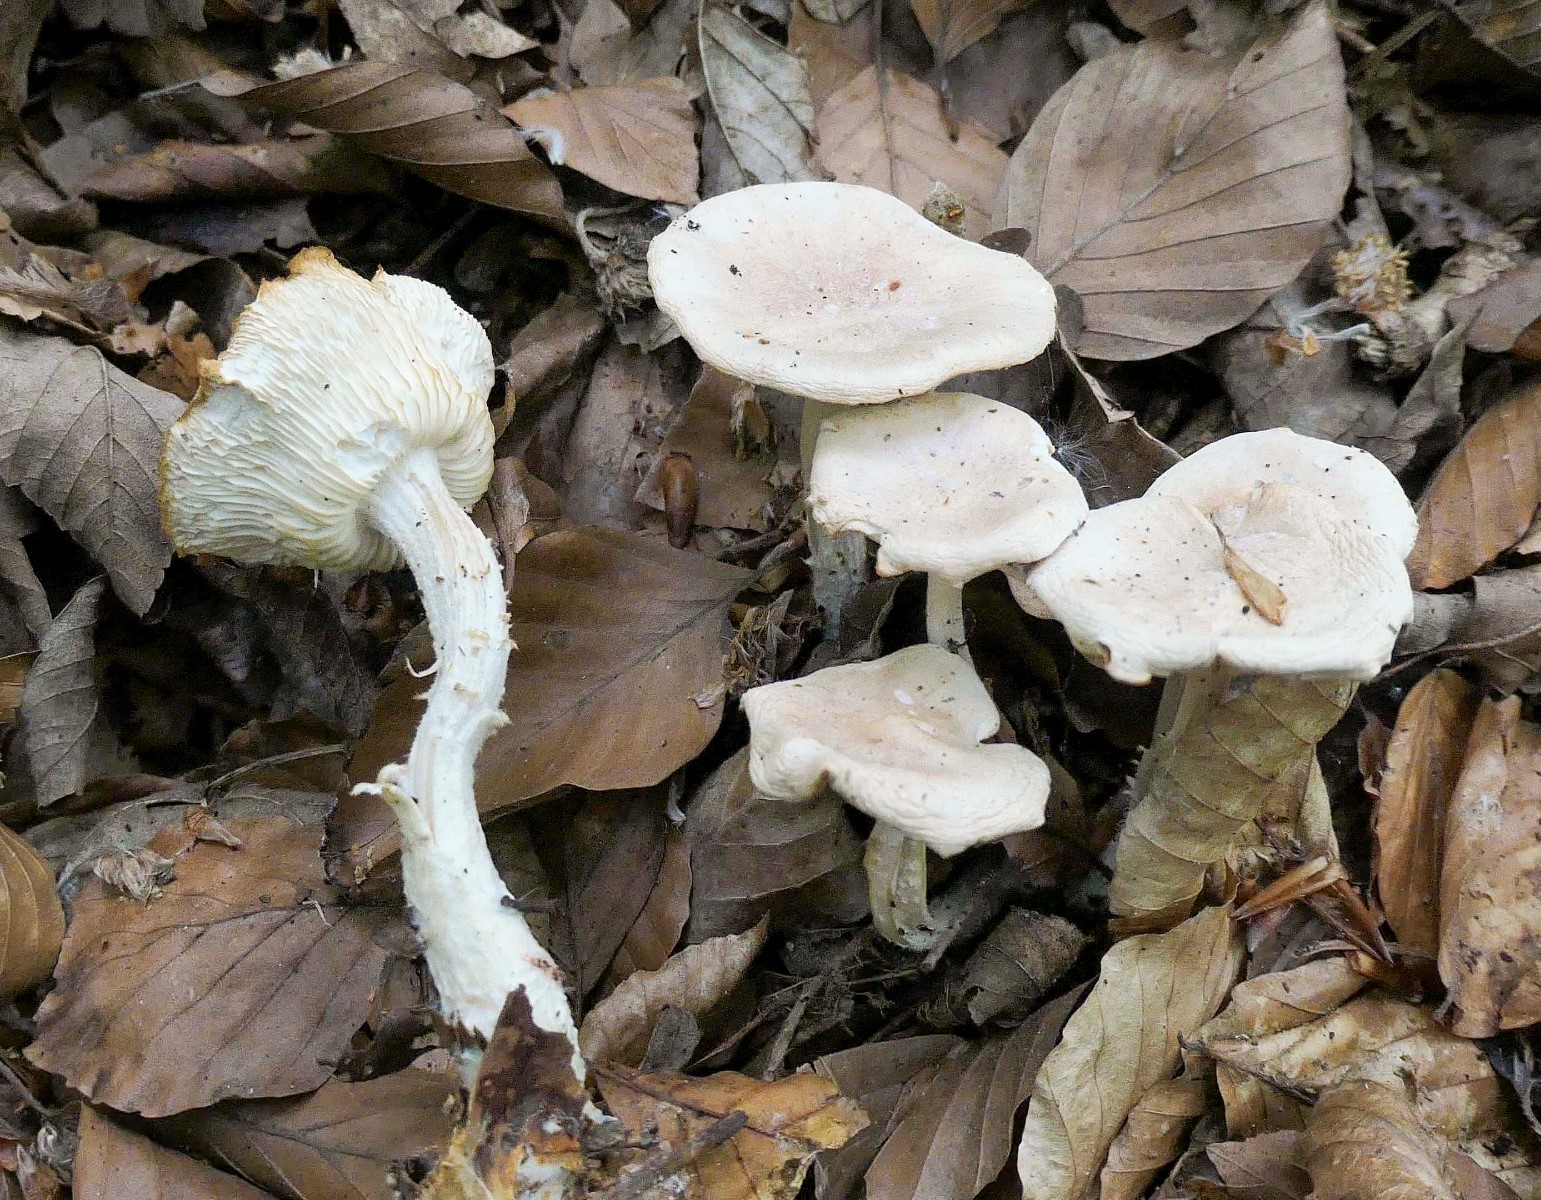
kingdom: Fungi
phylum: Basidiomycota
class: Agaricomycetes
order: Agaricales
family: Omphalotaceae
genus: Gymnopus
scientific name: Gymnopus hariolorum
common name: hvidkåls-fladhat
